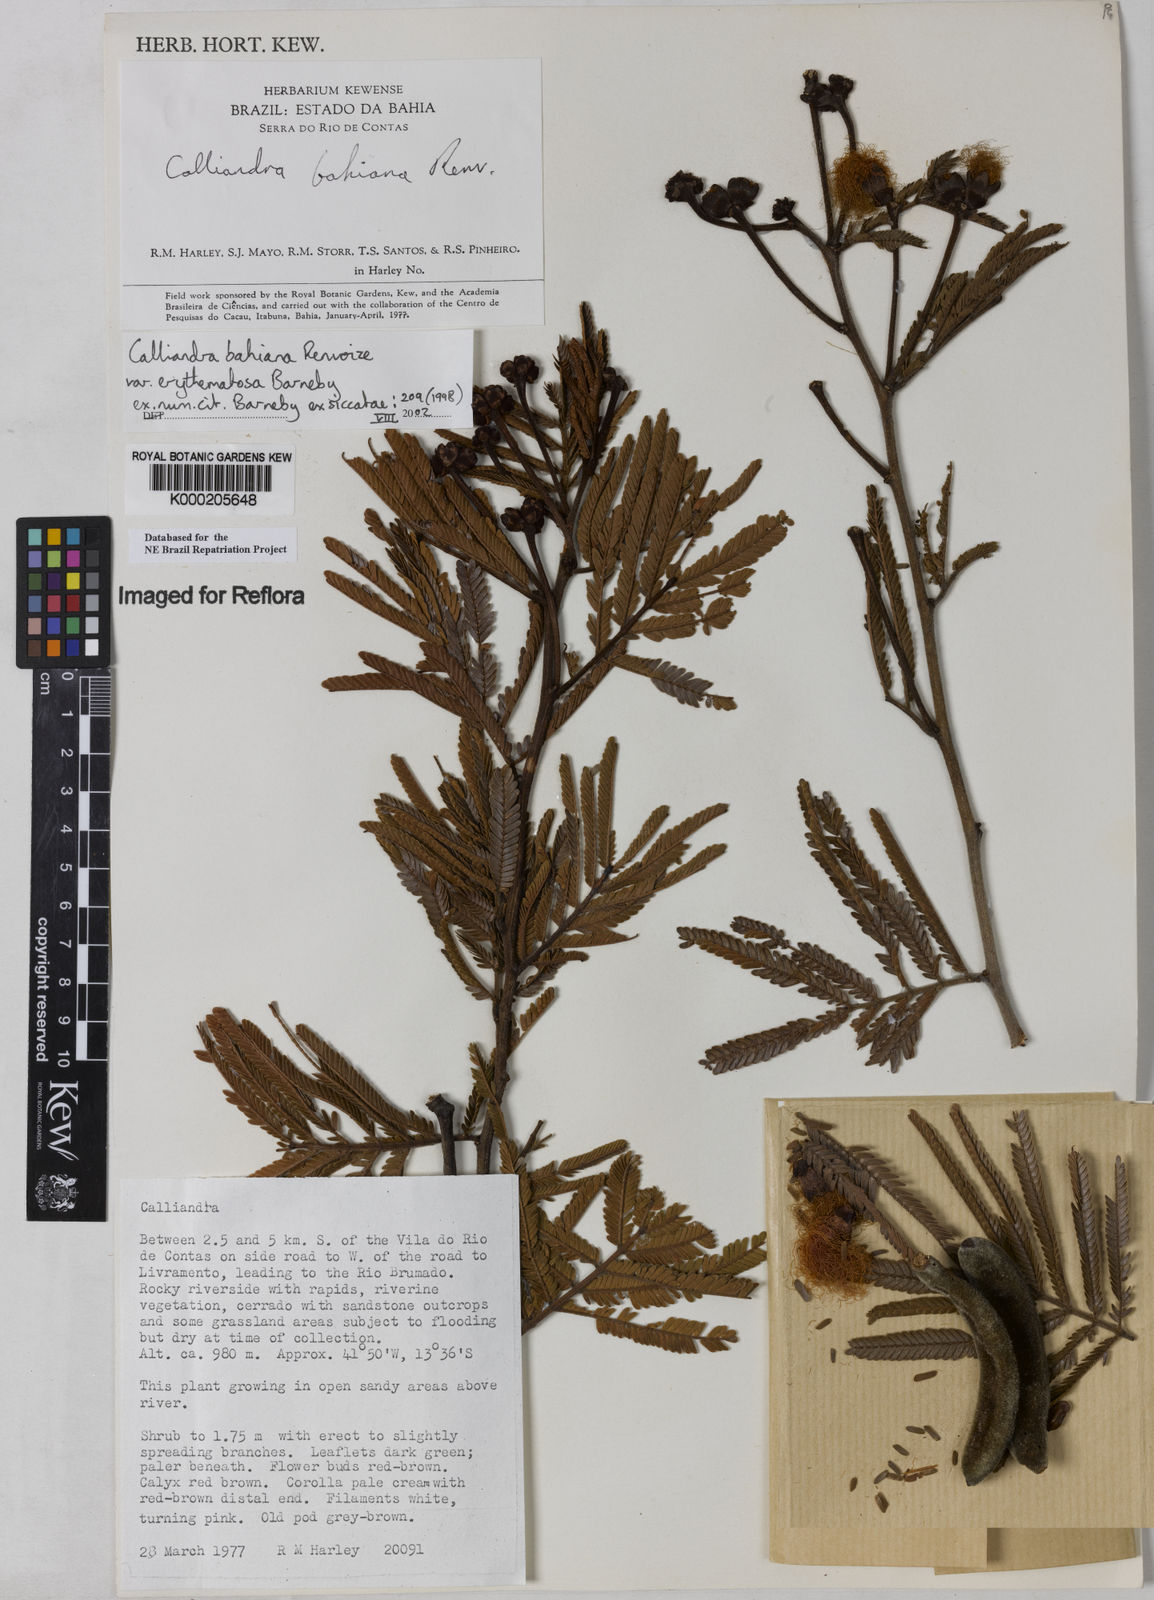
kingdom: Plantae
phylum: Tracheophyta
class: Magnoliopsida
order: Fabales
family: Fabaceae
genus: Calliandra
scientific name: Calliandra bahiana
